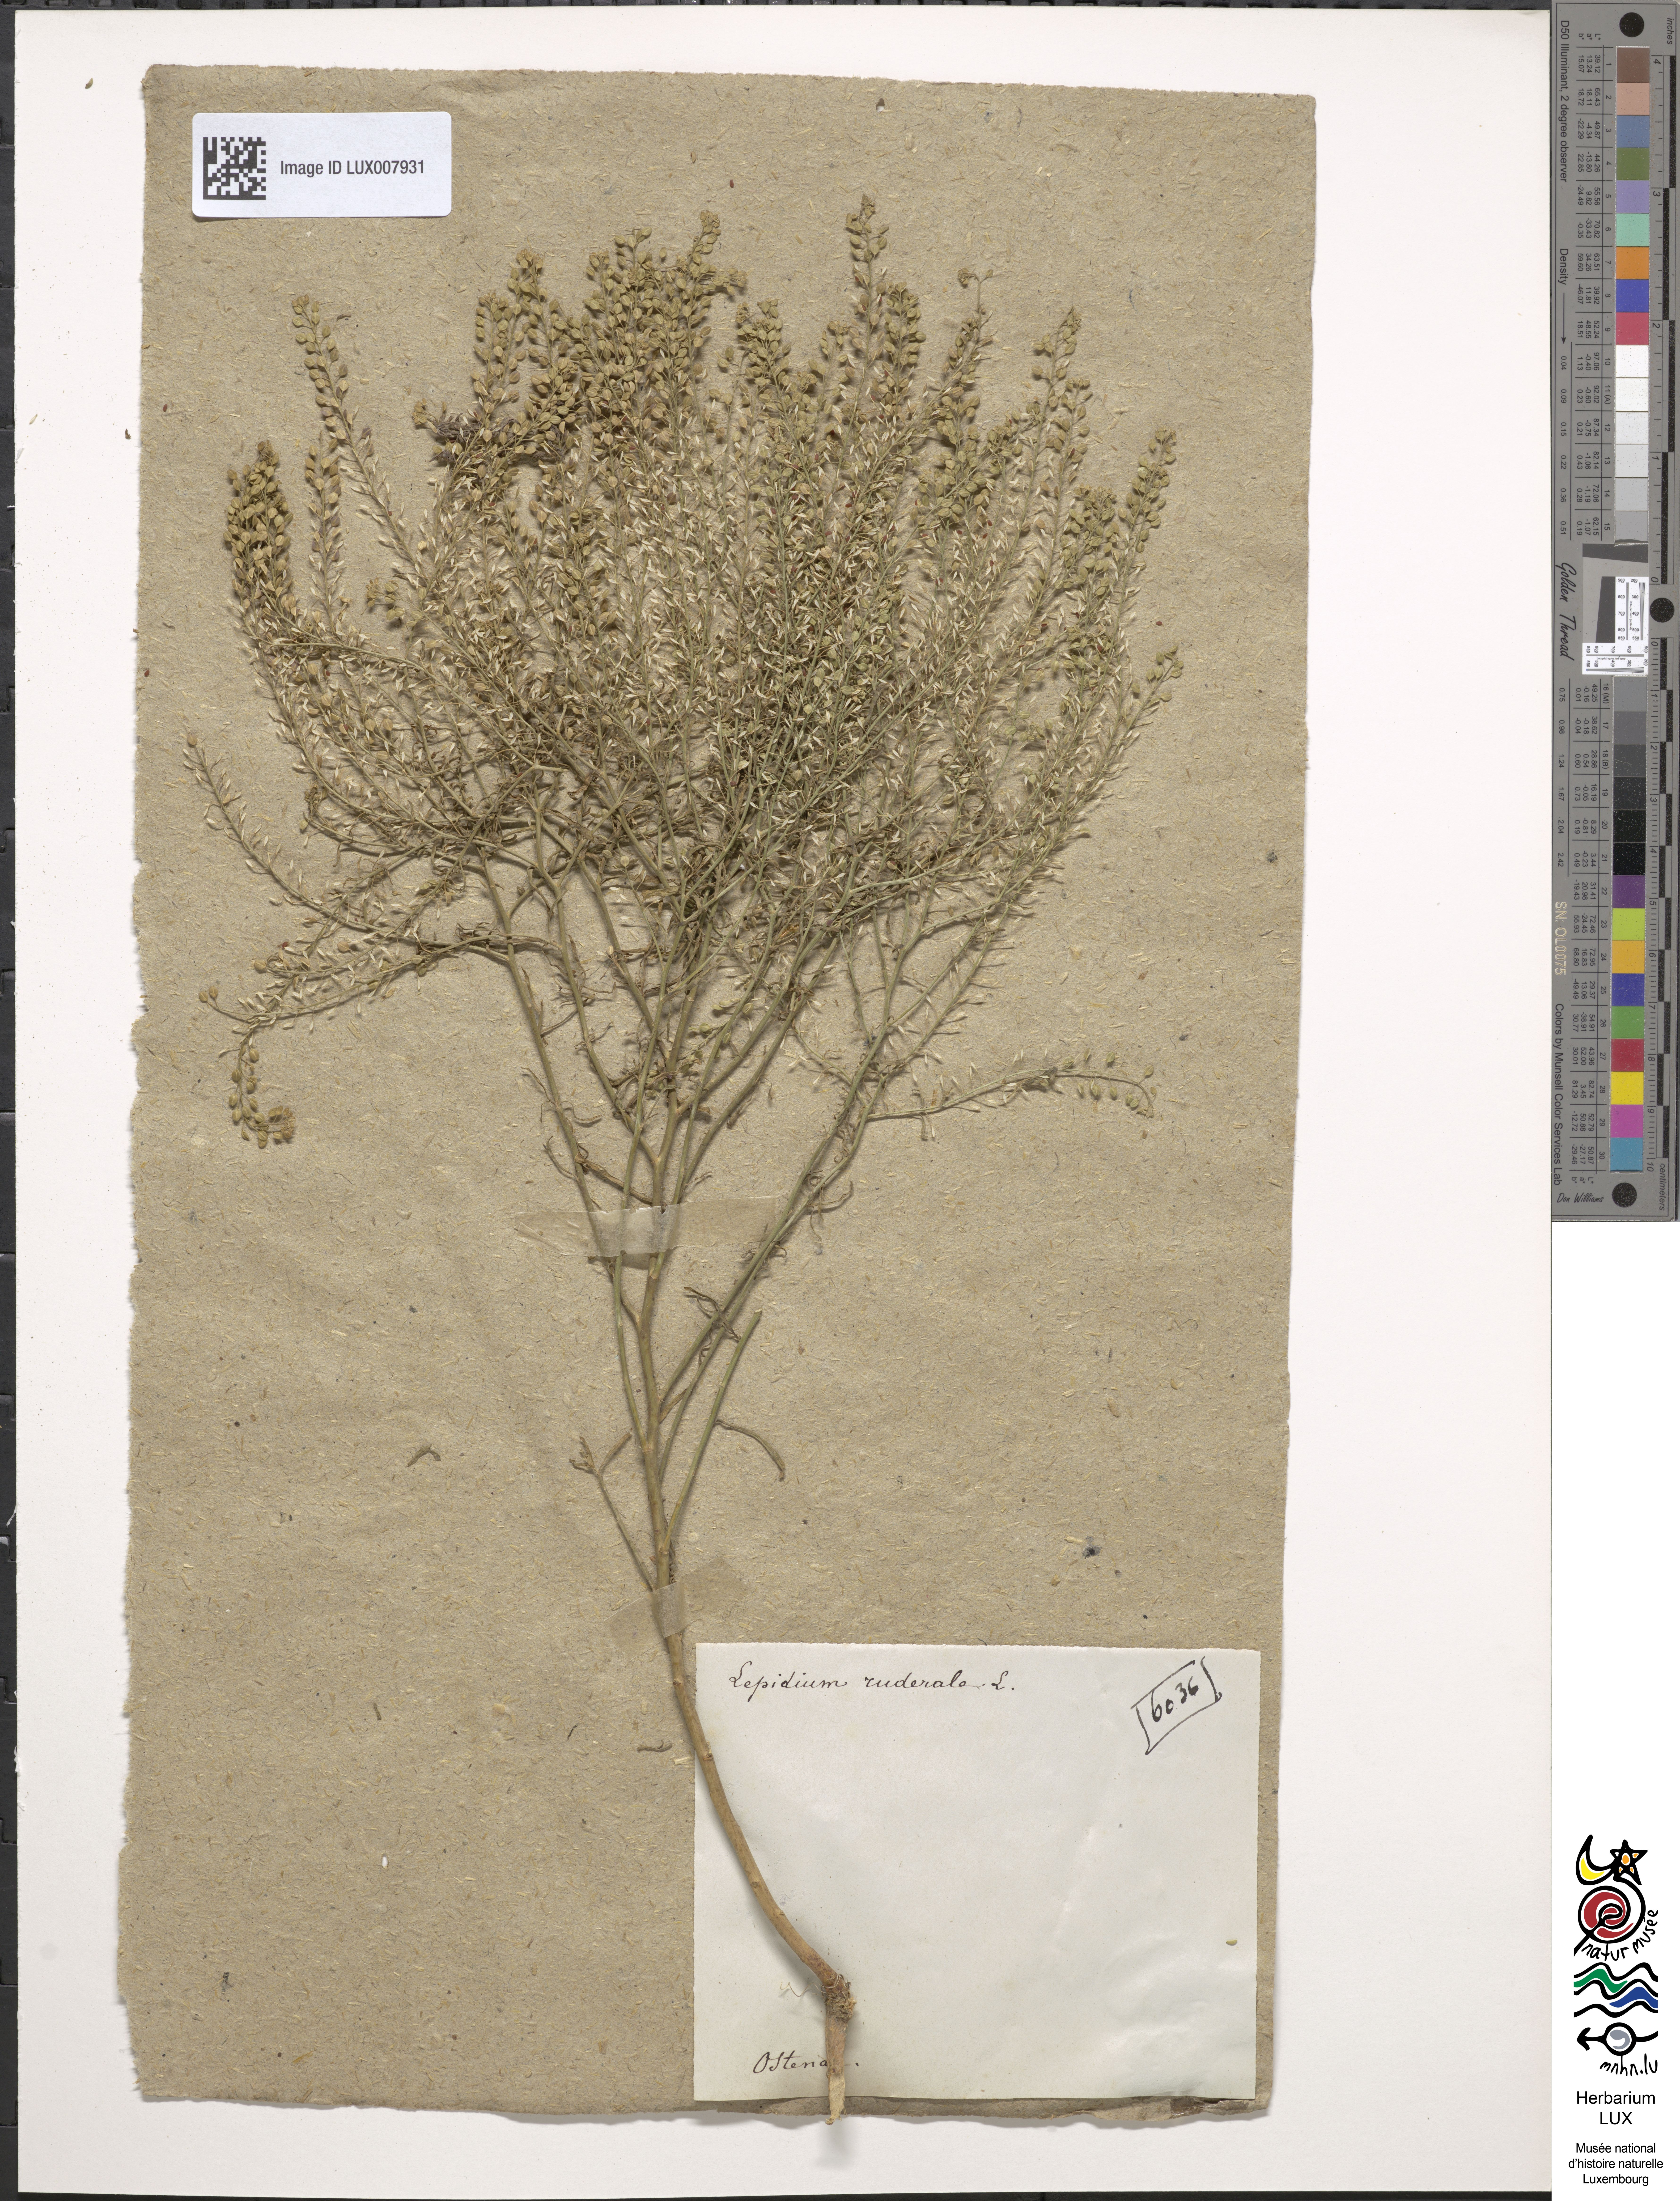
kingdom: Plantae
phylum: Tracheophyta
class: Magnoliopsida
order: Brassicales
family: Brassicaceae
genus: Lepidium
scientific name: Lepidium ruderale
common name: Narrow-leaved pepperwort
